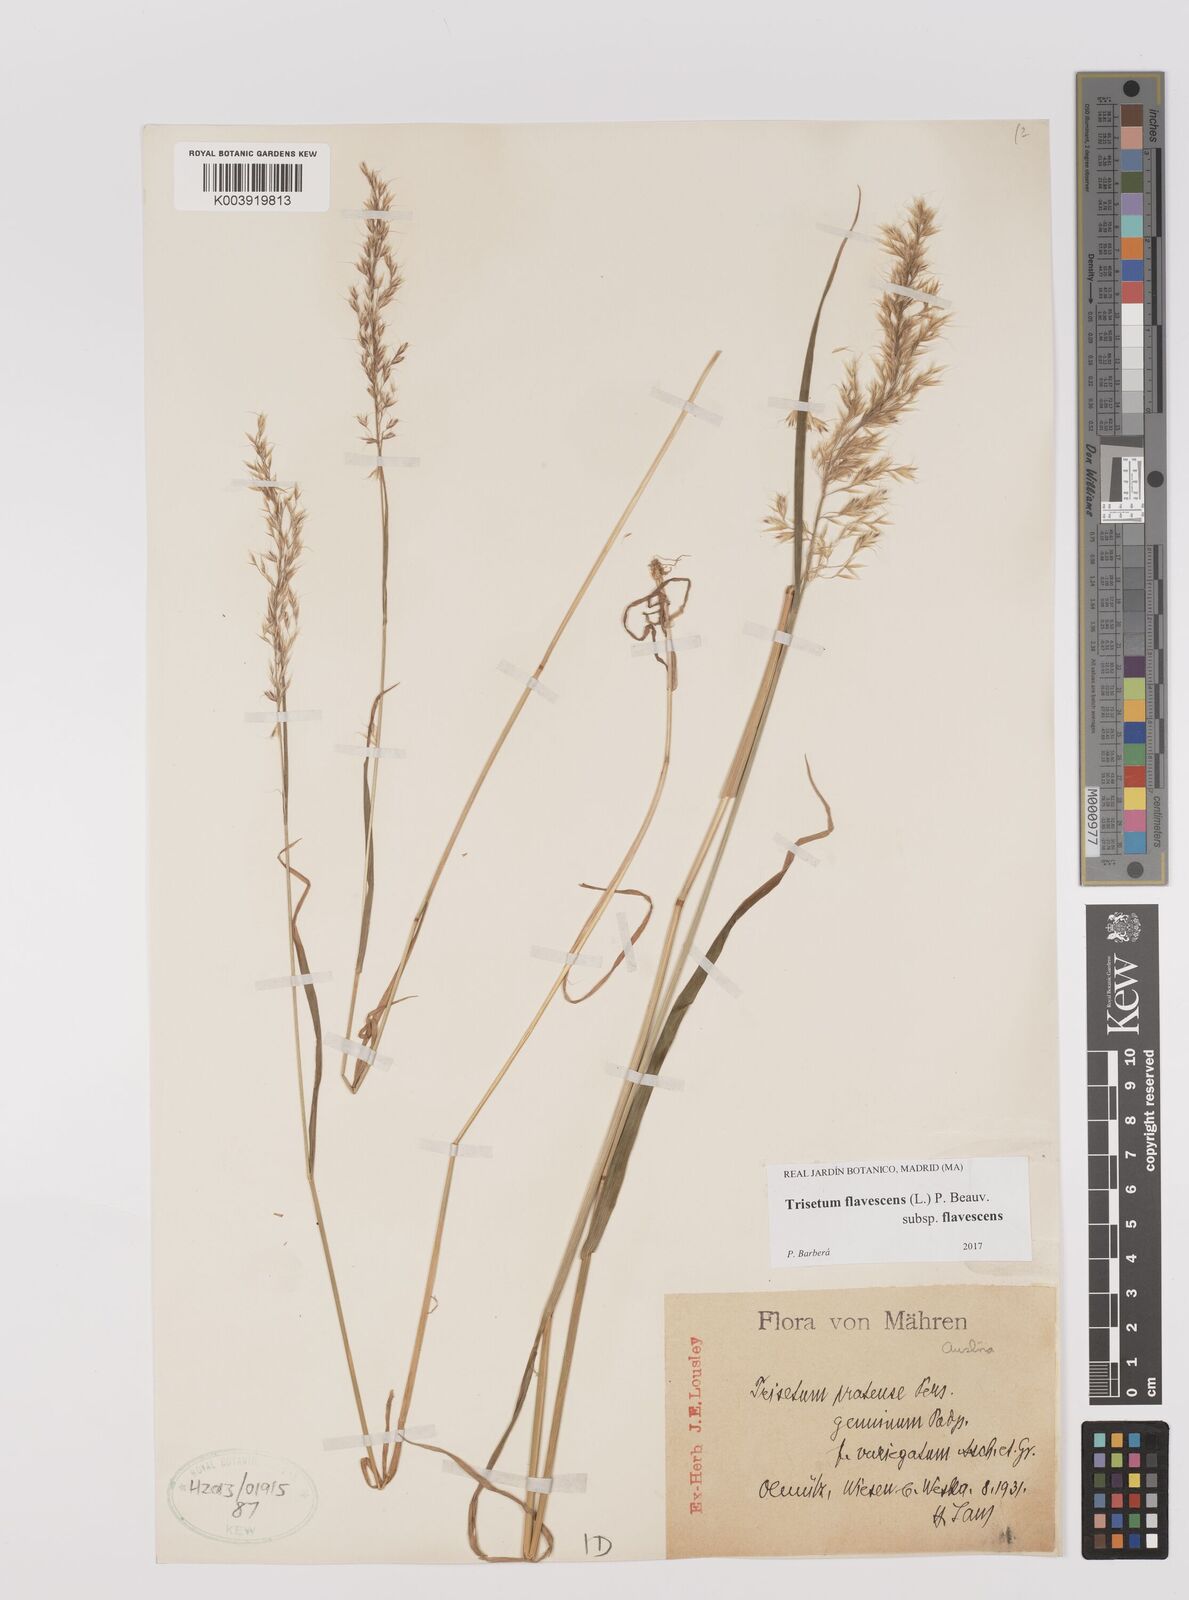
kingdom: Plantae
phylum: Tracheophyta
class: Liliopsida
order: Poales
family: Poaceae
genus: Trisetum
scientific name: Trisetum flavescens
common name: Yellow oat-grass
